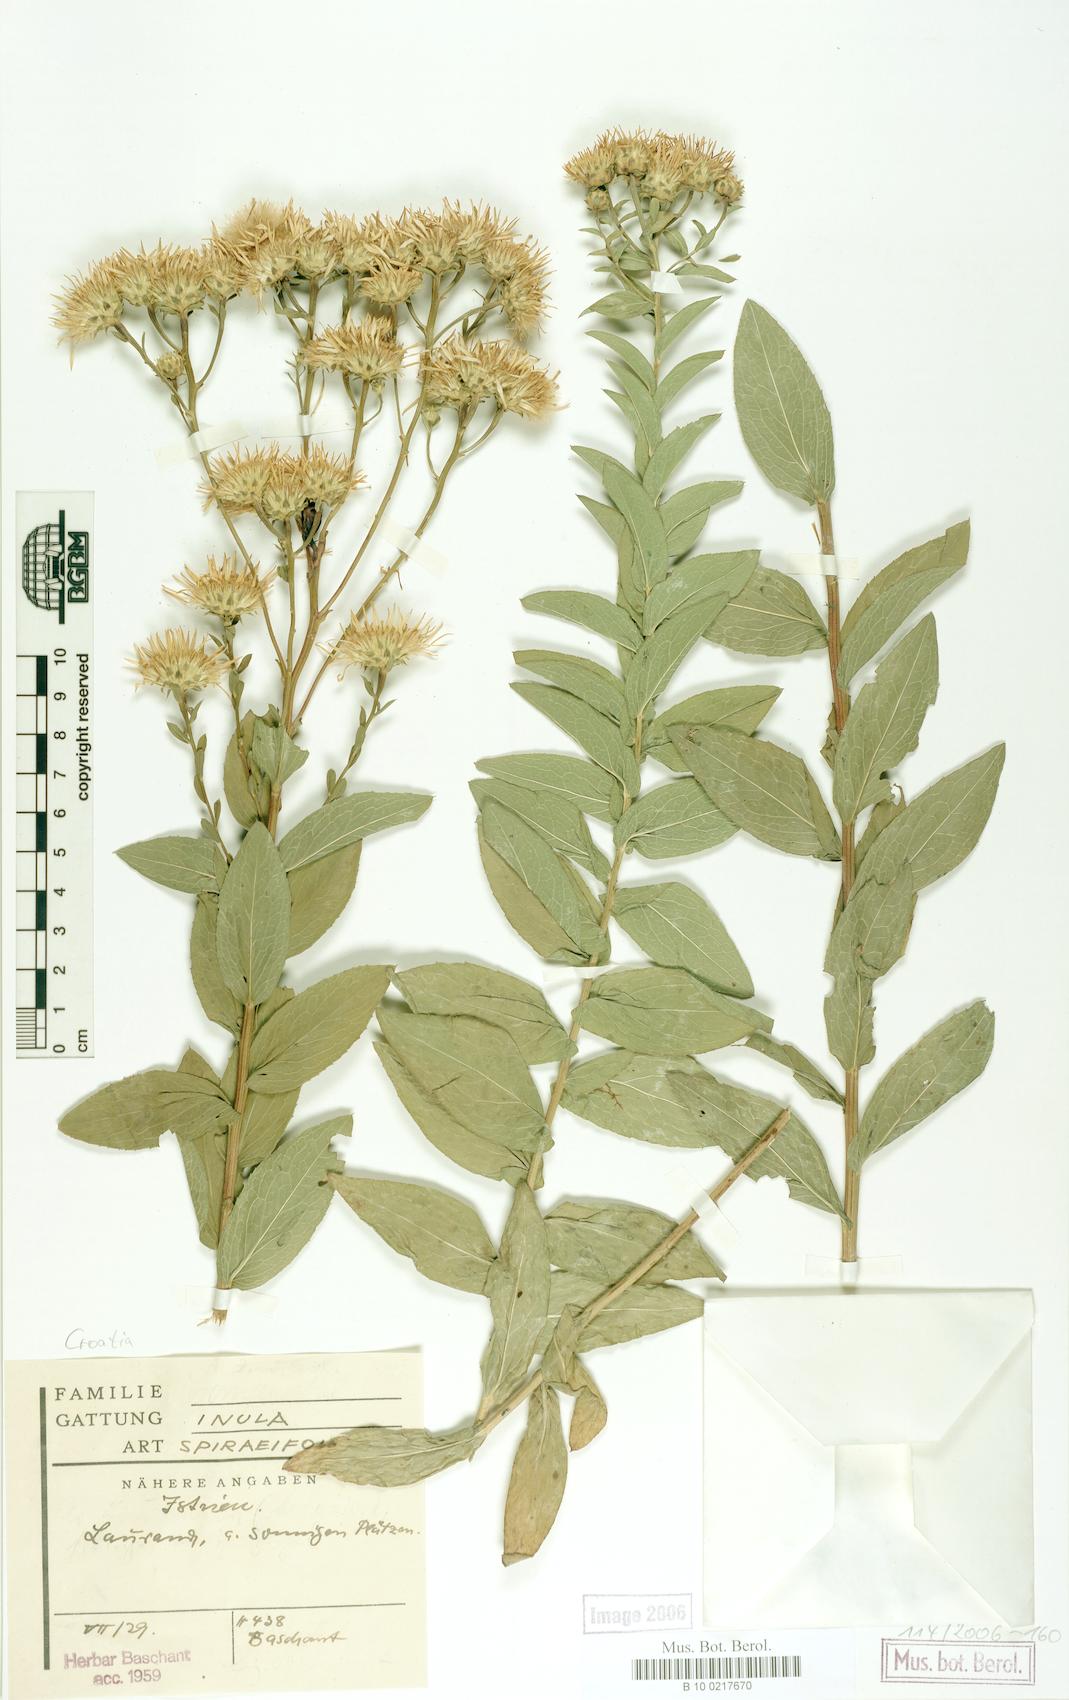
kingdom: Plantae
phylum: Tracheophyta
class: Magnoliopsida
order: Asterales
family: Asteraceae
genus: Pentanema
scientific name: Pentanema spiraeifolium
